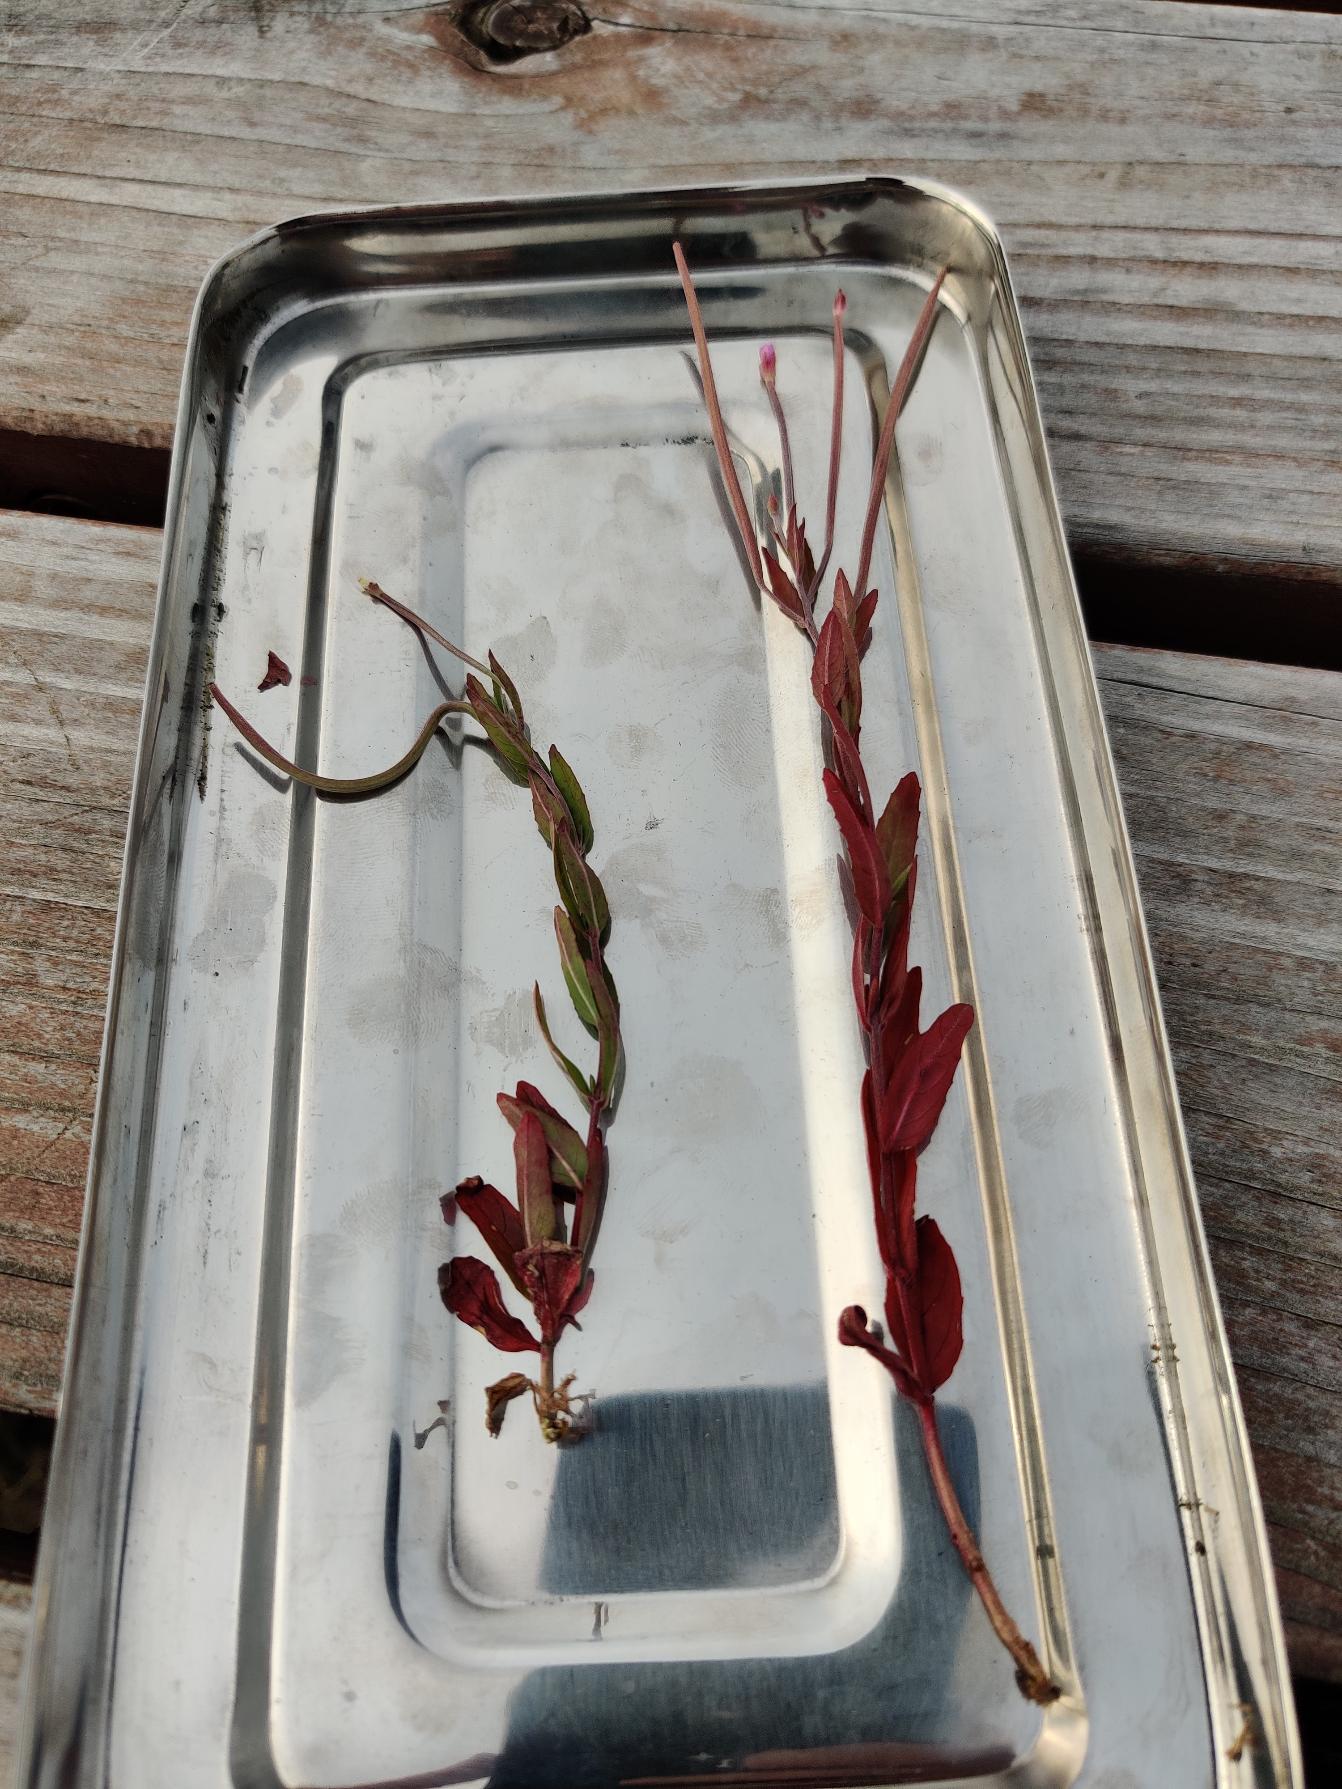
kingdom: Plantae
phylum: Tracheophyta
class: Magnoliopsida
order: Myrtales
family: Onagraceae
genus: Epilobium
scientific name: Epilobium
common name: Dueurtslægten
